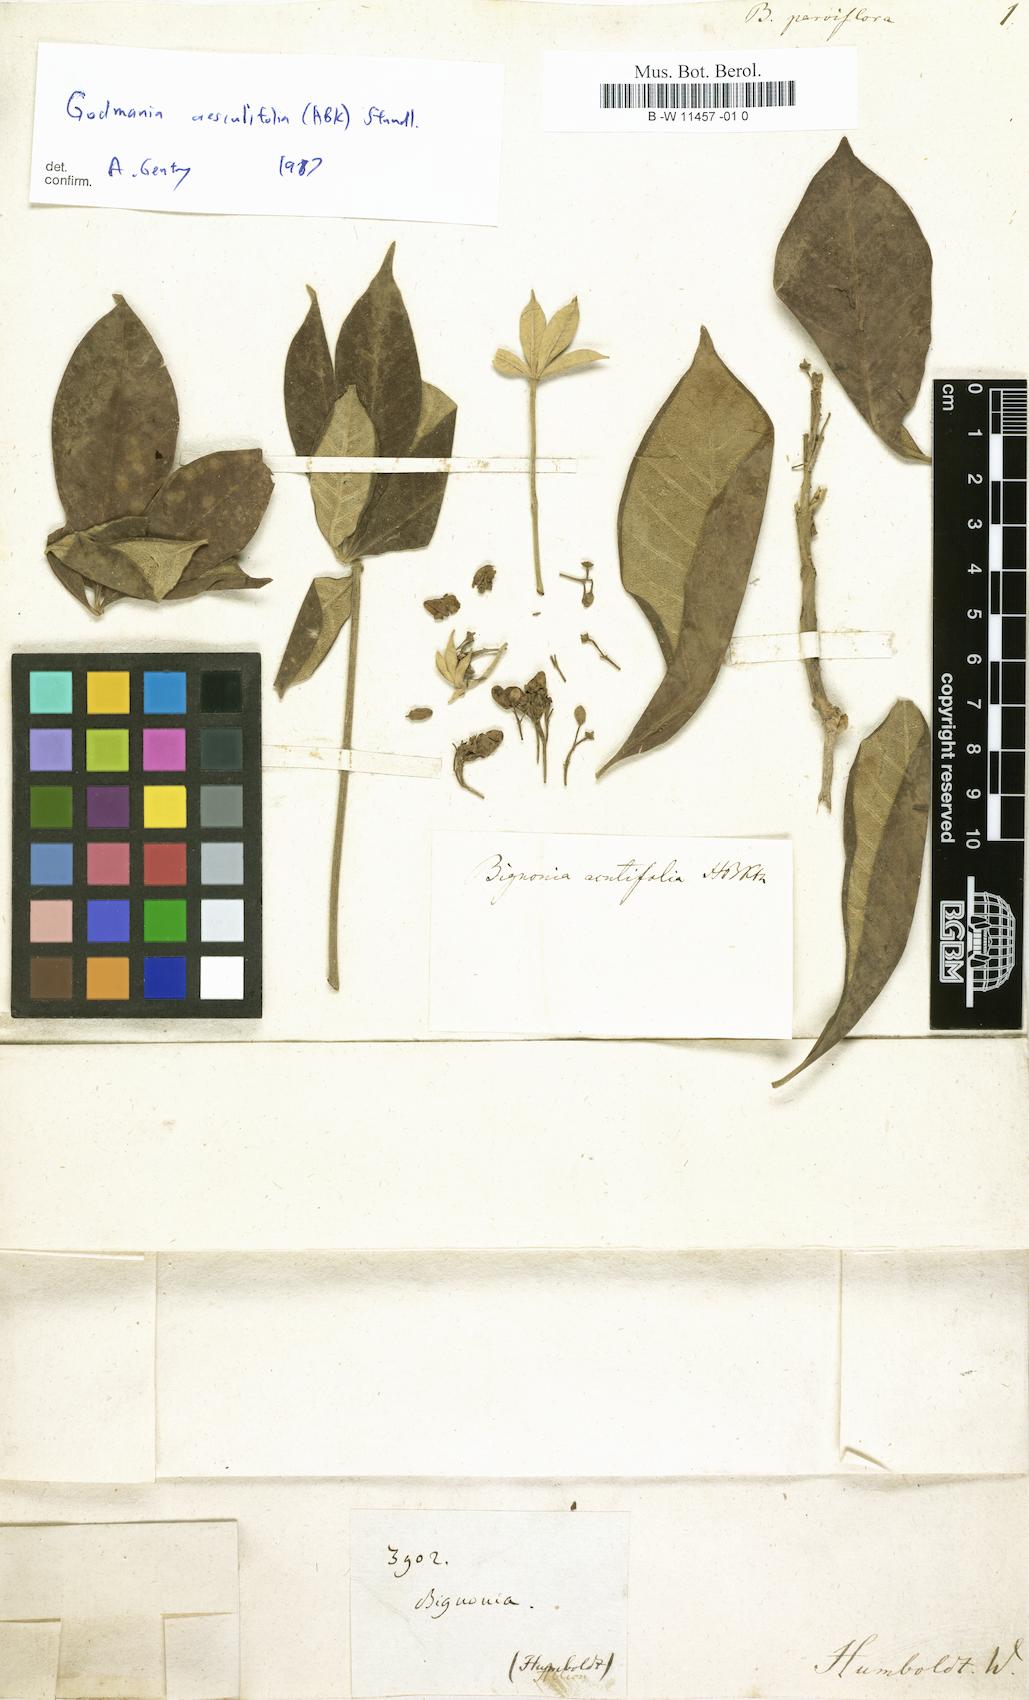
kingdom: Plantae
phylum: Tracheophyta
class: Magnoliopsida
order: Lamiales
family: Bignoniaceae
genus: Bignonia
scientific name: Bignonia parviflora
